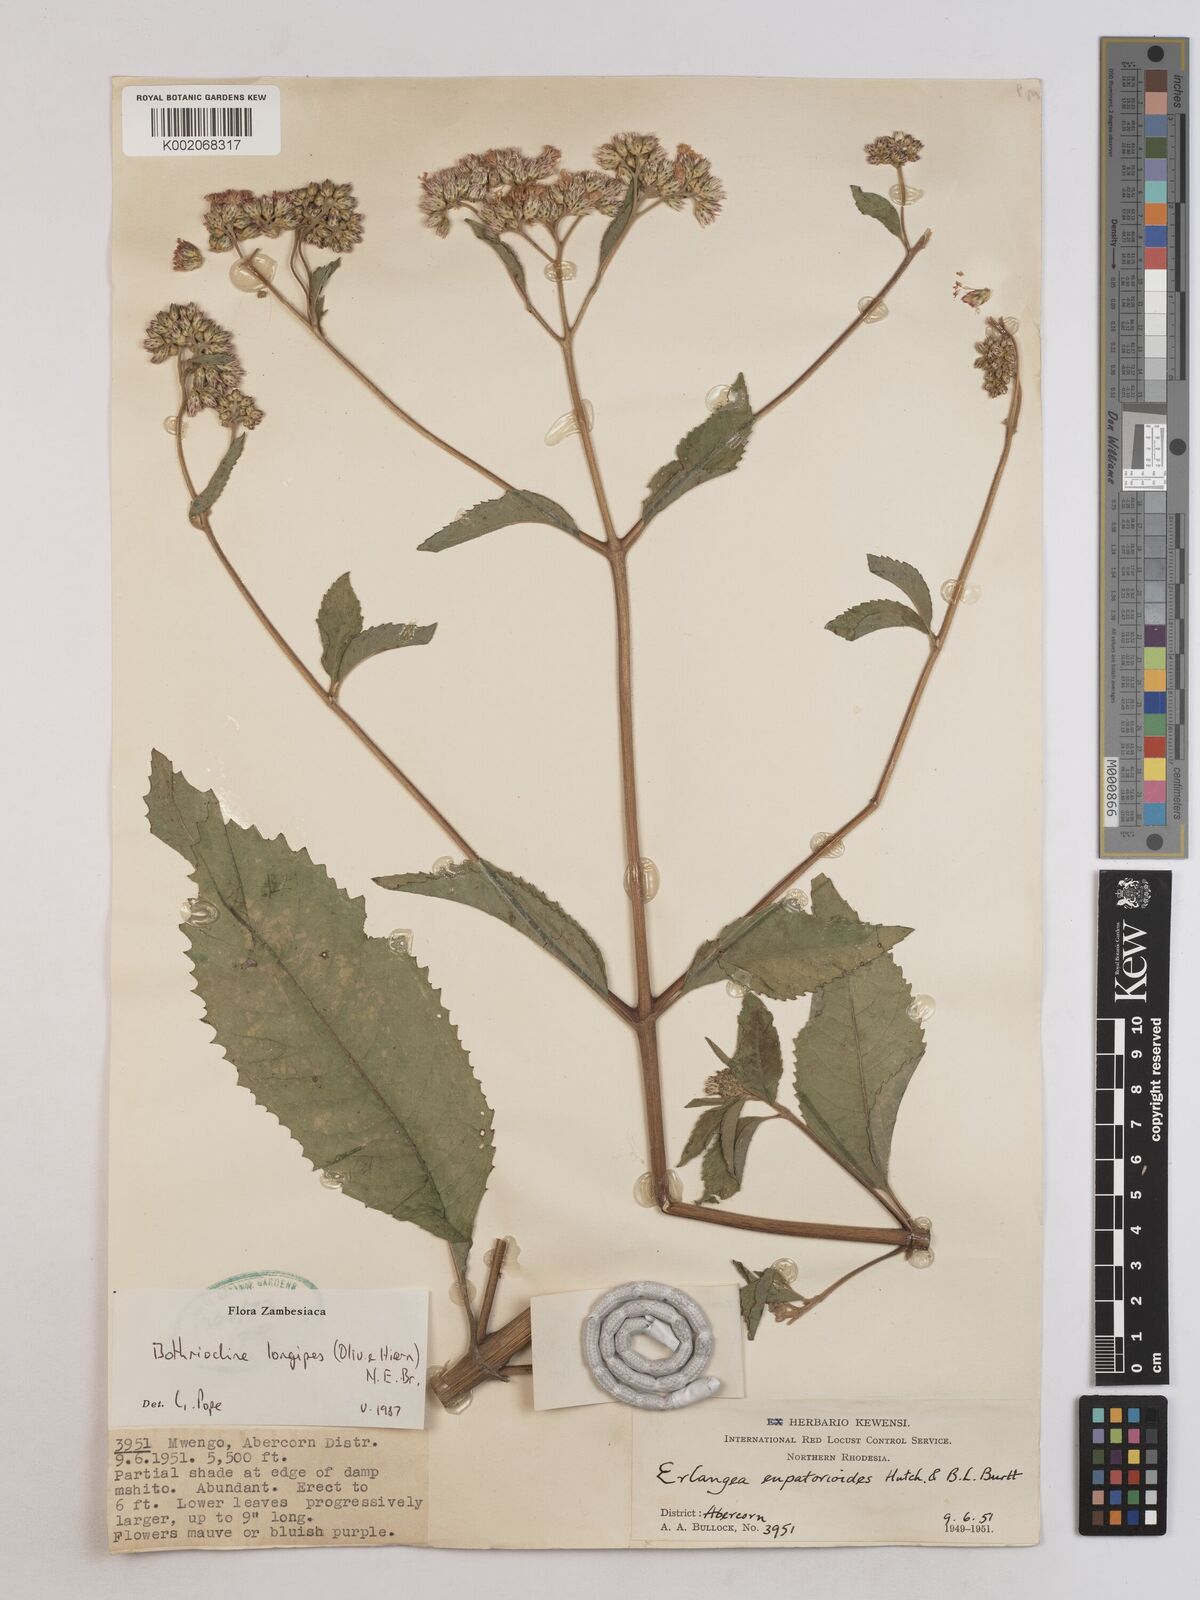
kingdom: Plantae
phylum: Tracheophyta
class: Magnoliopsida
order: Asterales
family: Asteraceae
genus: Bothriocline
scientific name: Bothriocline longipes
